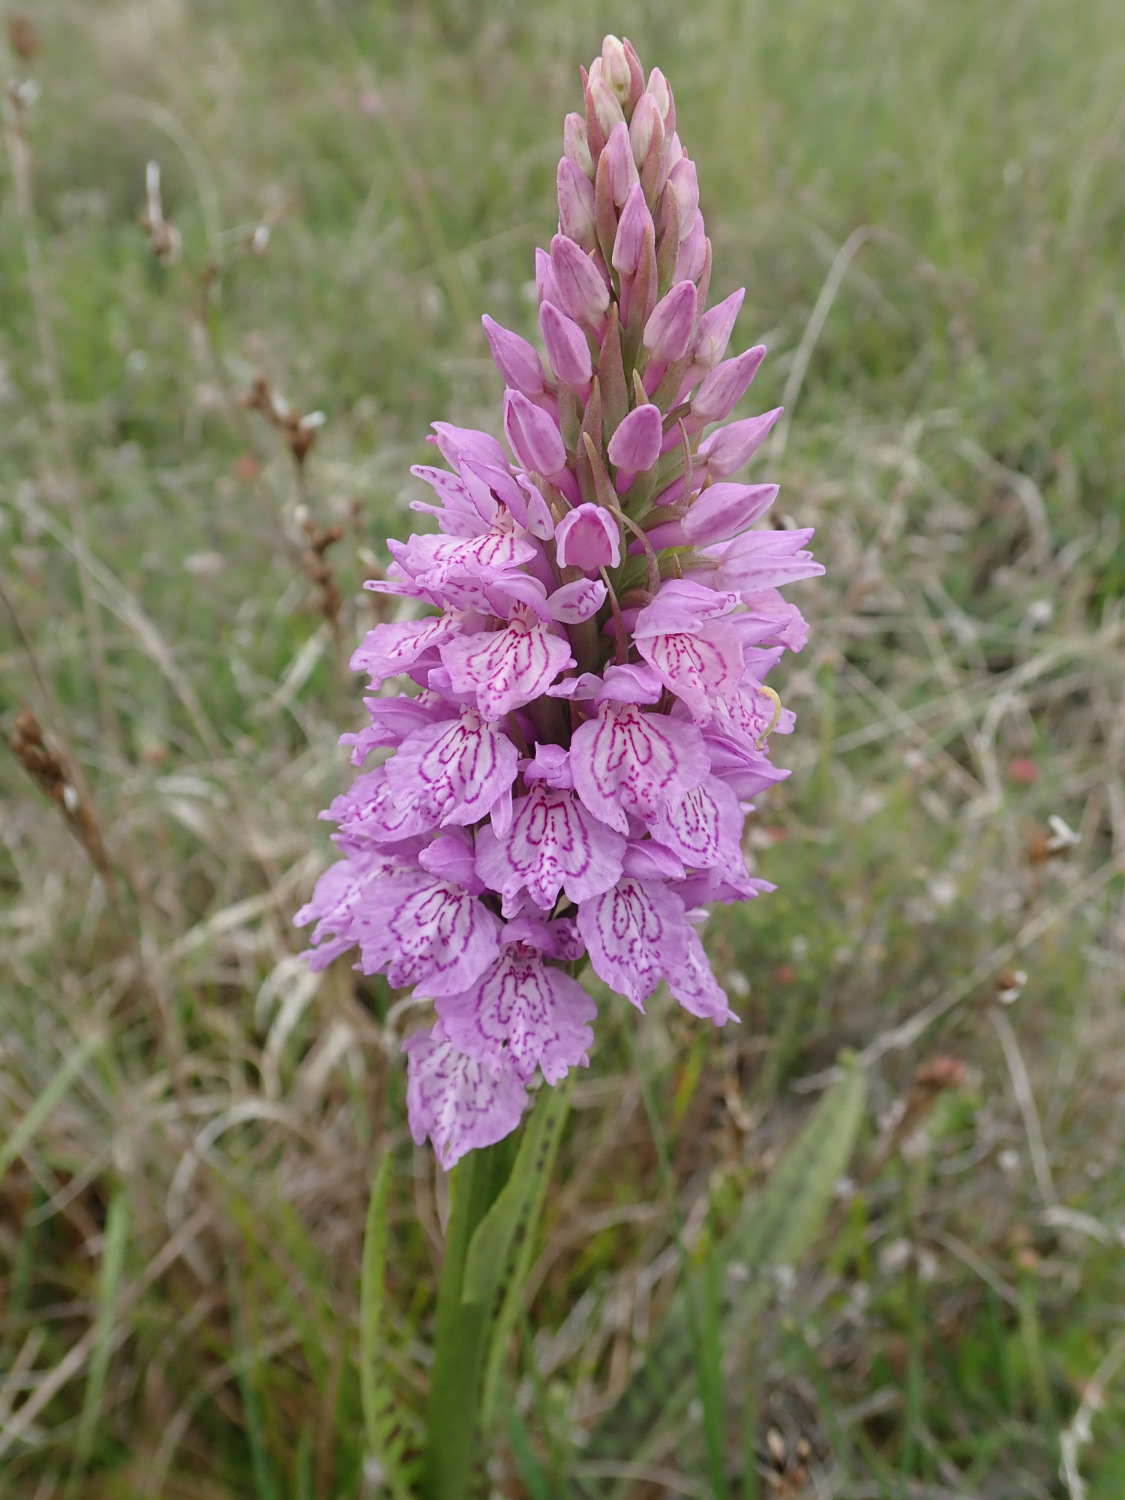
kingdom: Plantae
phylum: Tracheophyta
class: Liliopsida
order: Asparagales
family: Orchidaceae
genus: Dactylorhiza
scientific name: Dactylorhiza maculata
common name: Plettet gøgeurt (underart)
